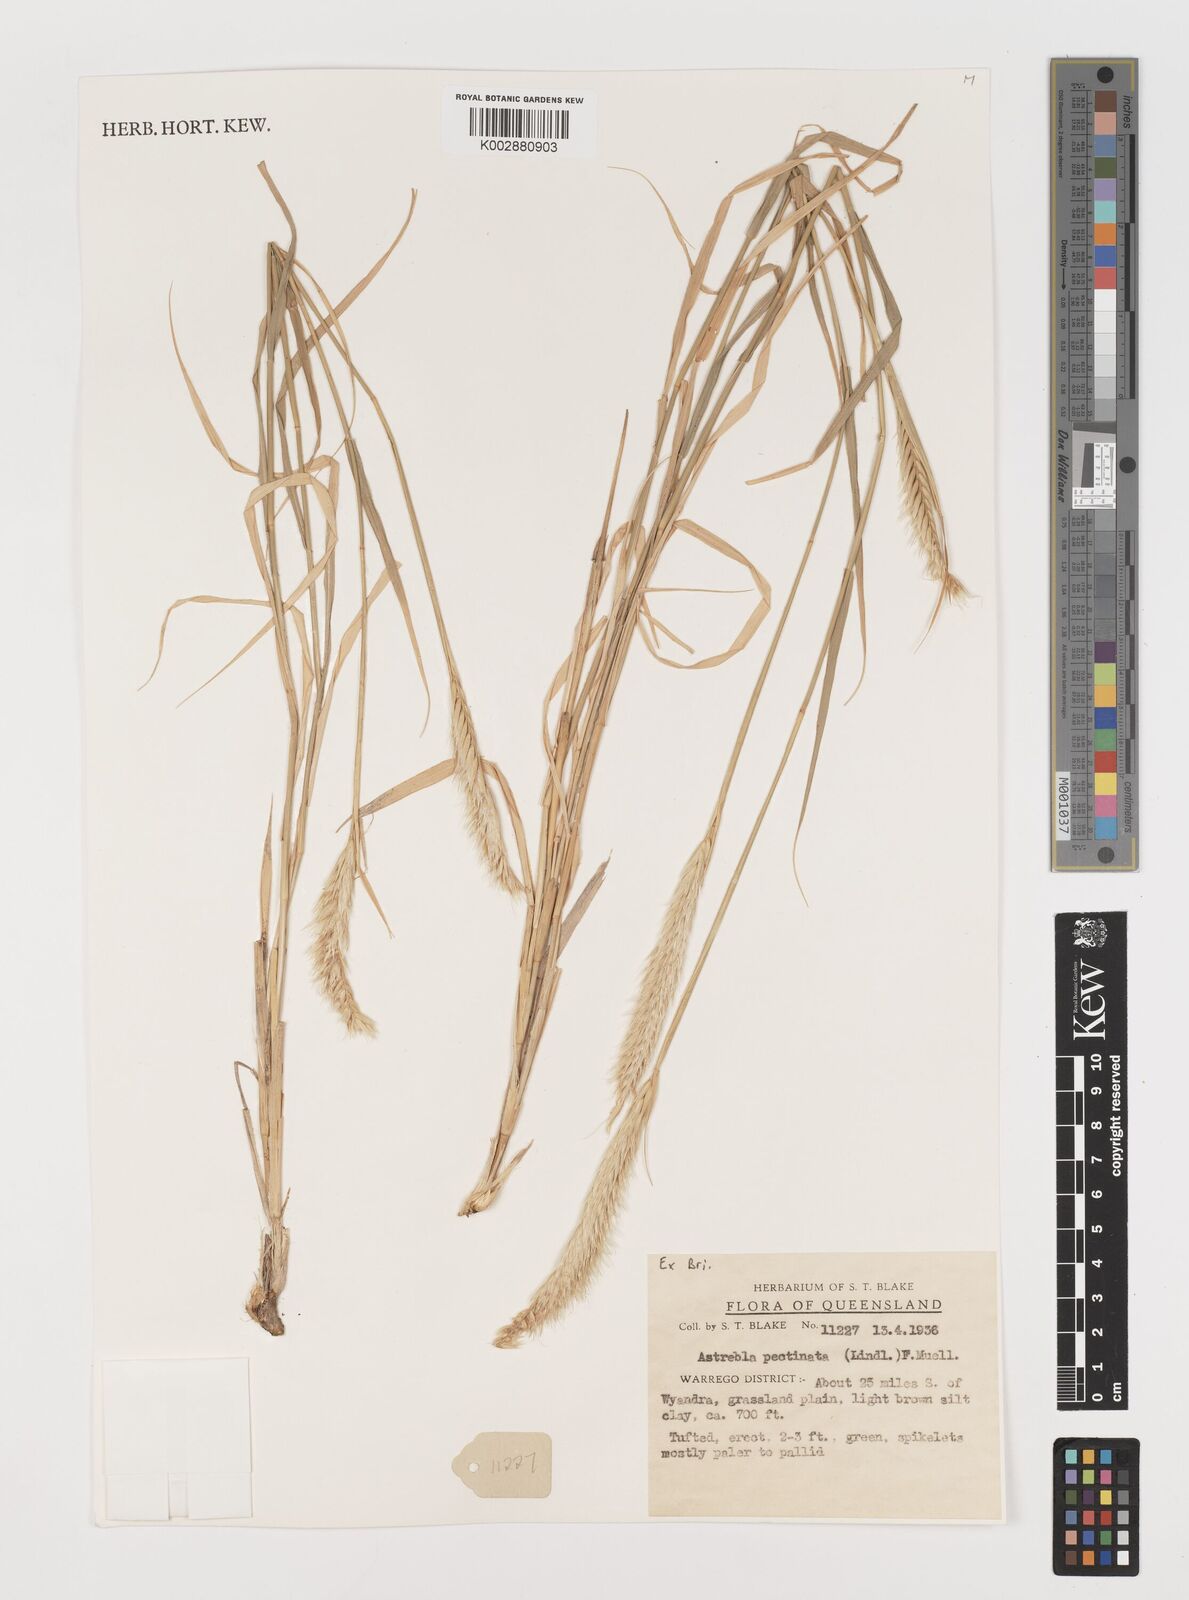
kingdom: Plantae
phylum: Tracheophyta
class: Liliopsida
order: Poales
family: Poaceae
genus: Astrebla
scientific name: Astrebla pectinata
